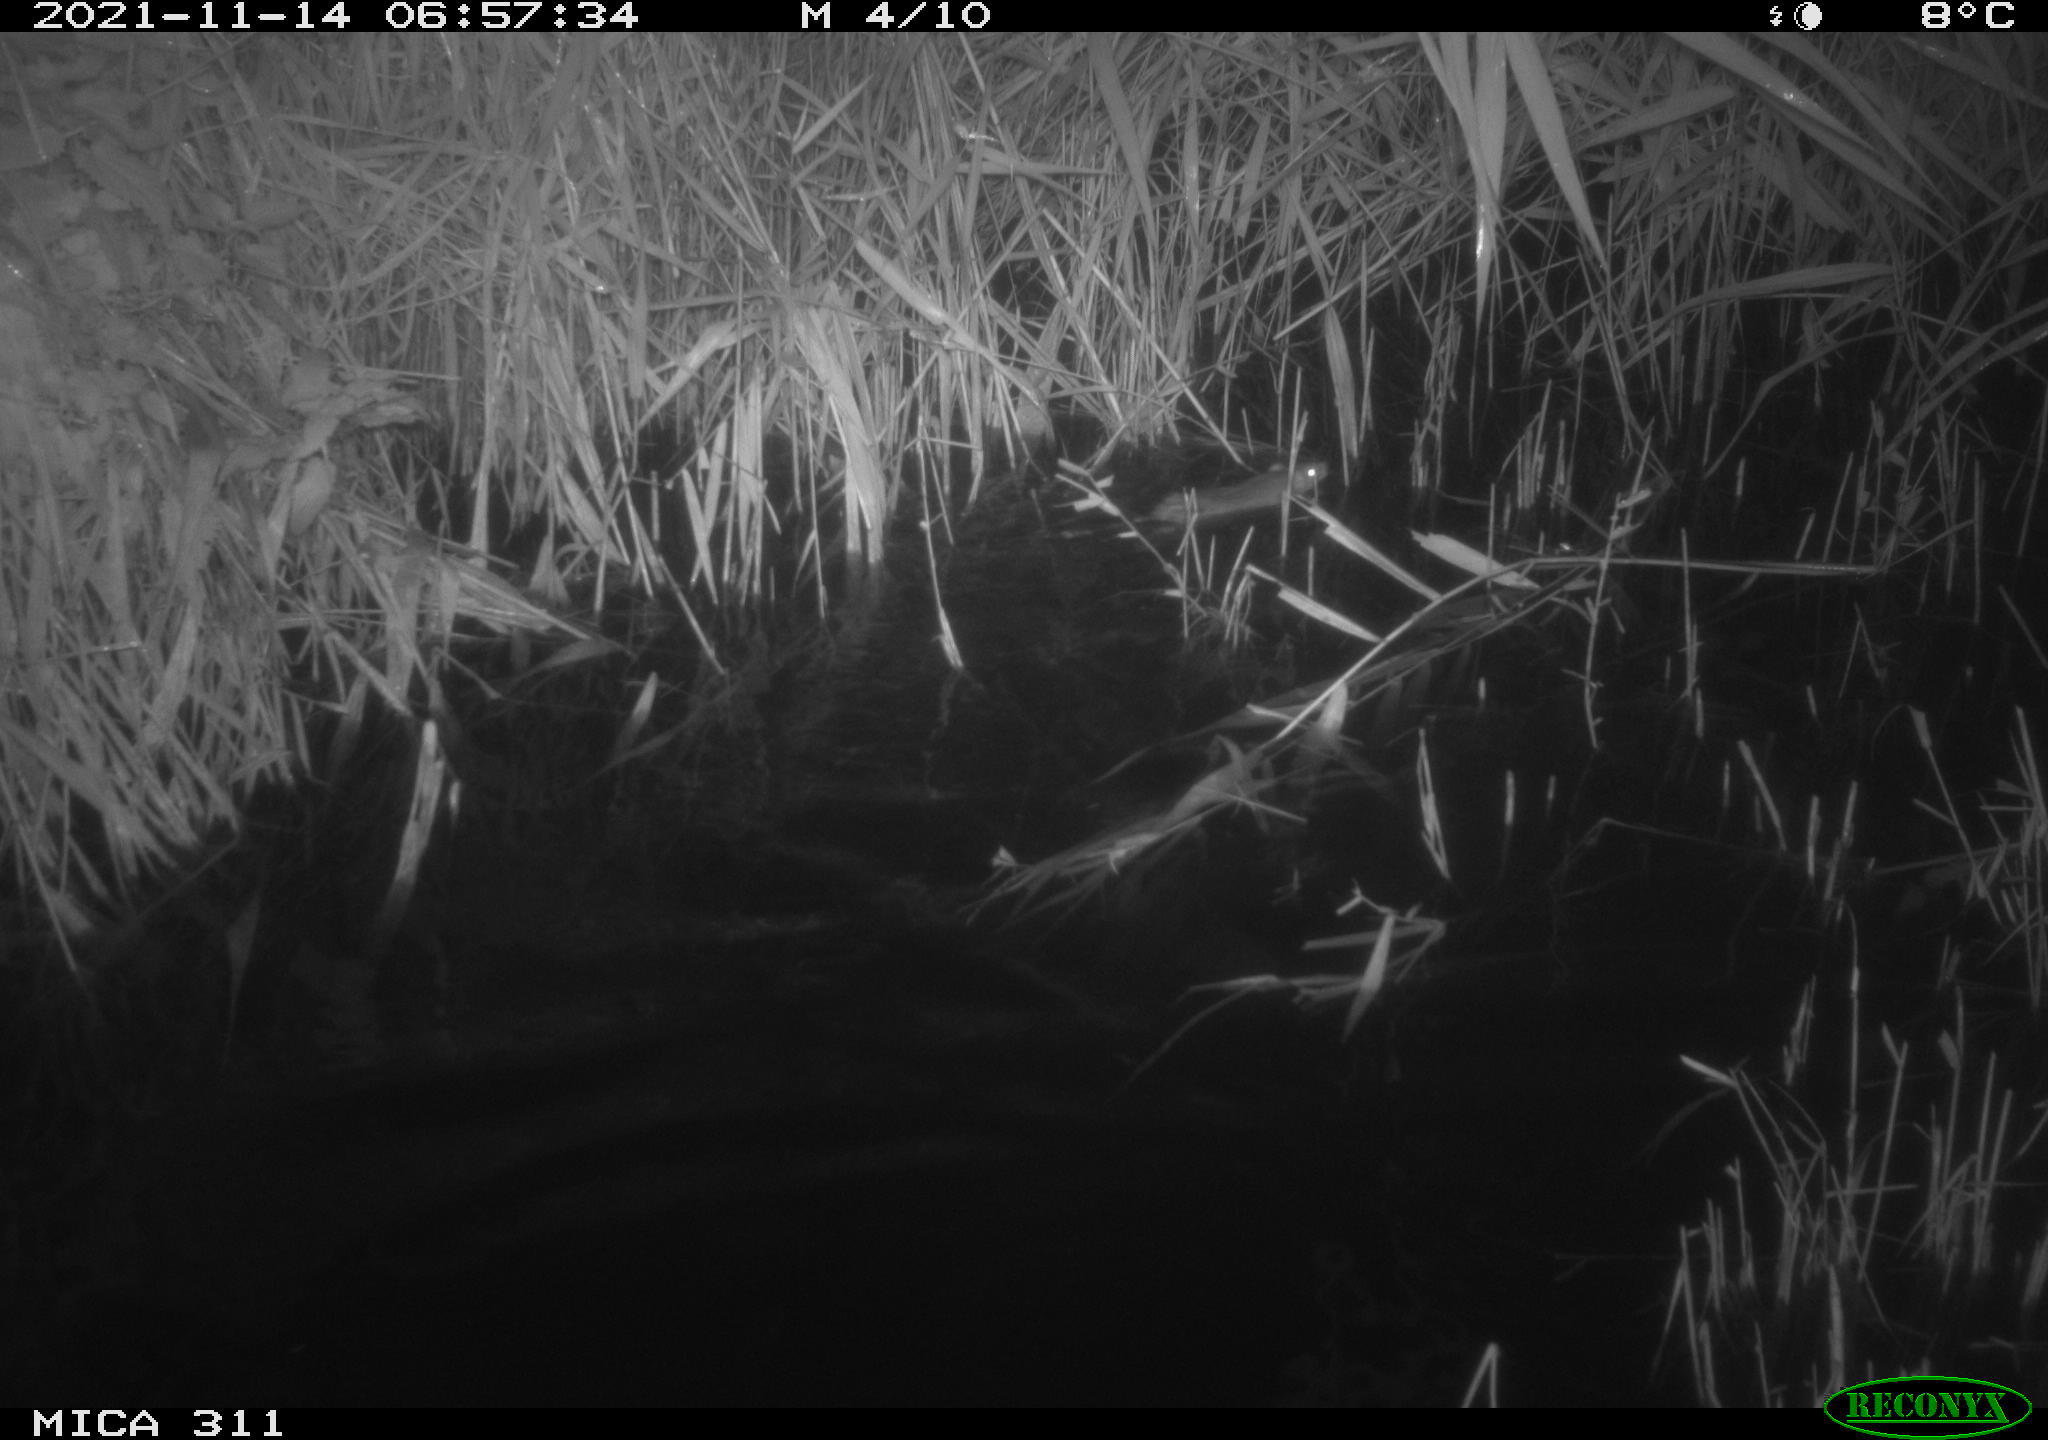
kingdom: Animalia
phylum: Chordata
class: Mammalia
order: Rodentia
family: Muridae
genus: Rattus
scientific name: Rattus norvegicus
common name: Brown rat
